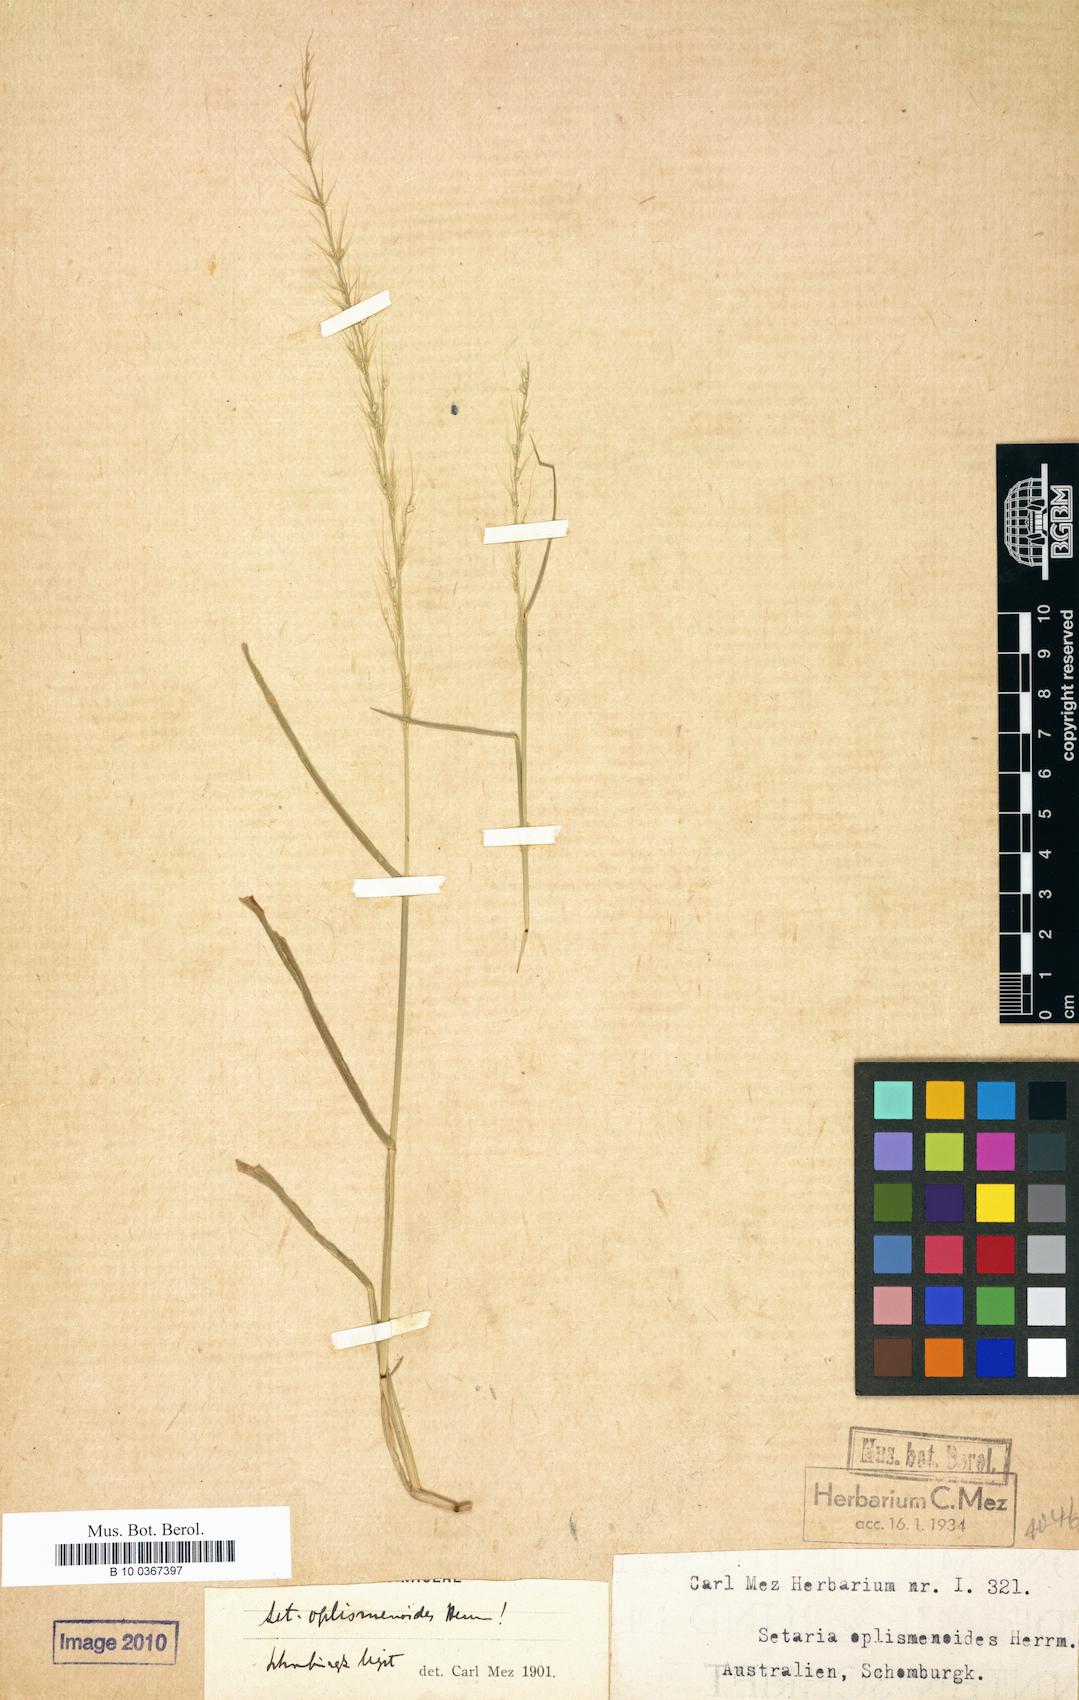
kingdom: Plantae
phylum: Tracheophyta
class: Liliopsida
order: Poales
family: Poaceae
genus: Setaria
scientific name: Setaria oplismenoides
